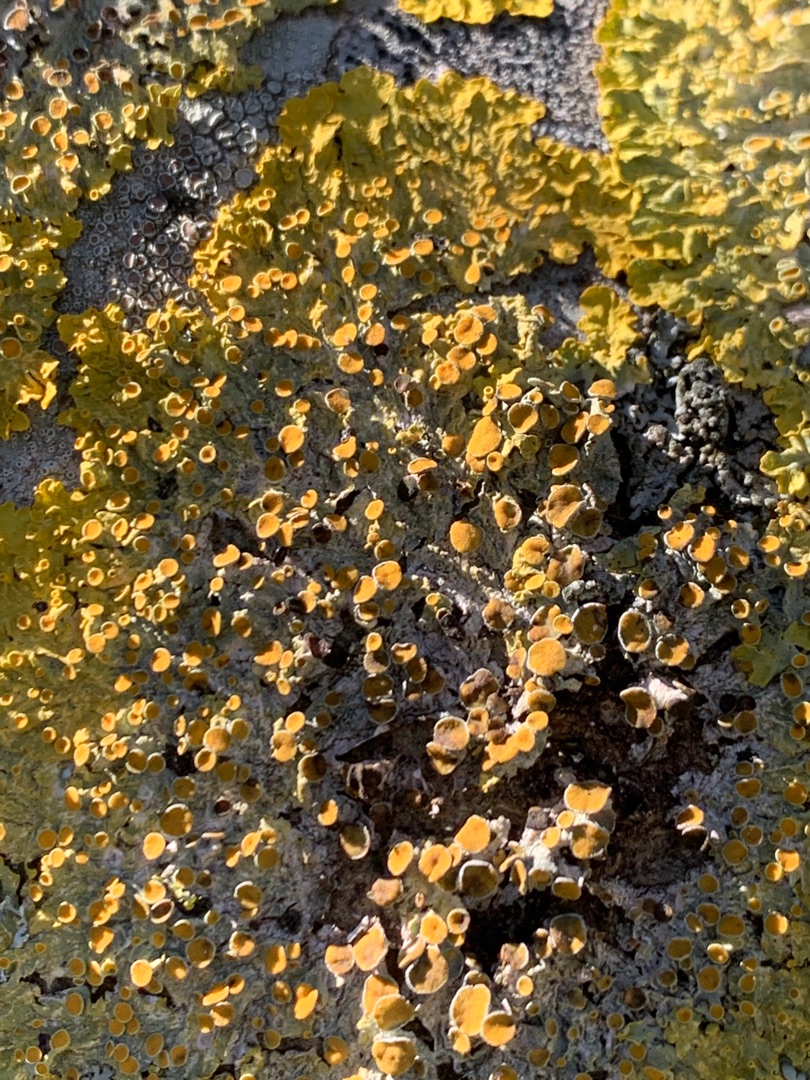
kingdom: Fungi
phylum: Ascomycota
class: Lecanoromycetes
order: Teloschistales
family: Teloschistaceae
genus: Xanthoria
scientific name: Xanthoria parietina
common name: Almindelig væggelav
